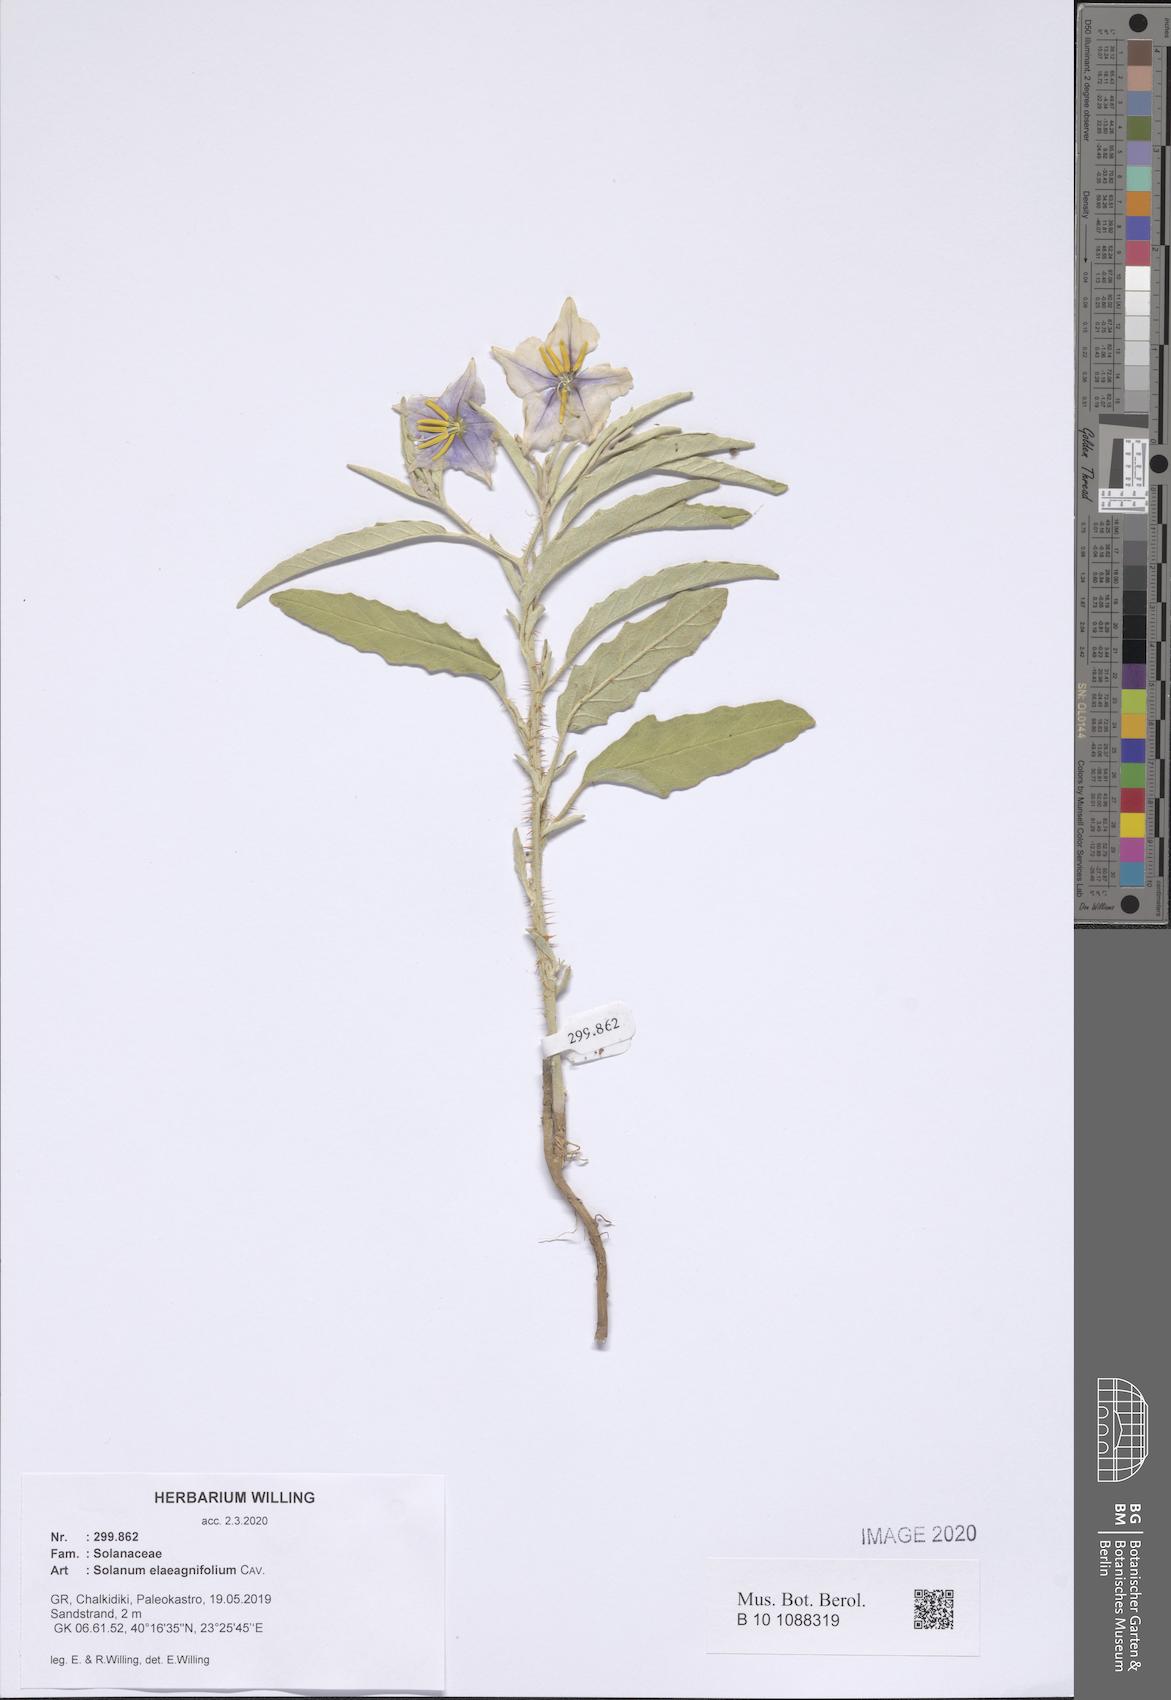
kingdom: Plantae
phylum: Tracheophyta
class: Magnoliopsida
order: Solanales
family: Solanaceae
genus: Solanum
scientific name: Solanum elaeagnifolium
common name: Silverleaf nightshade
